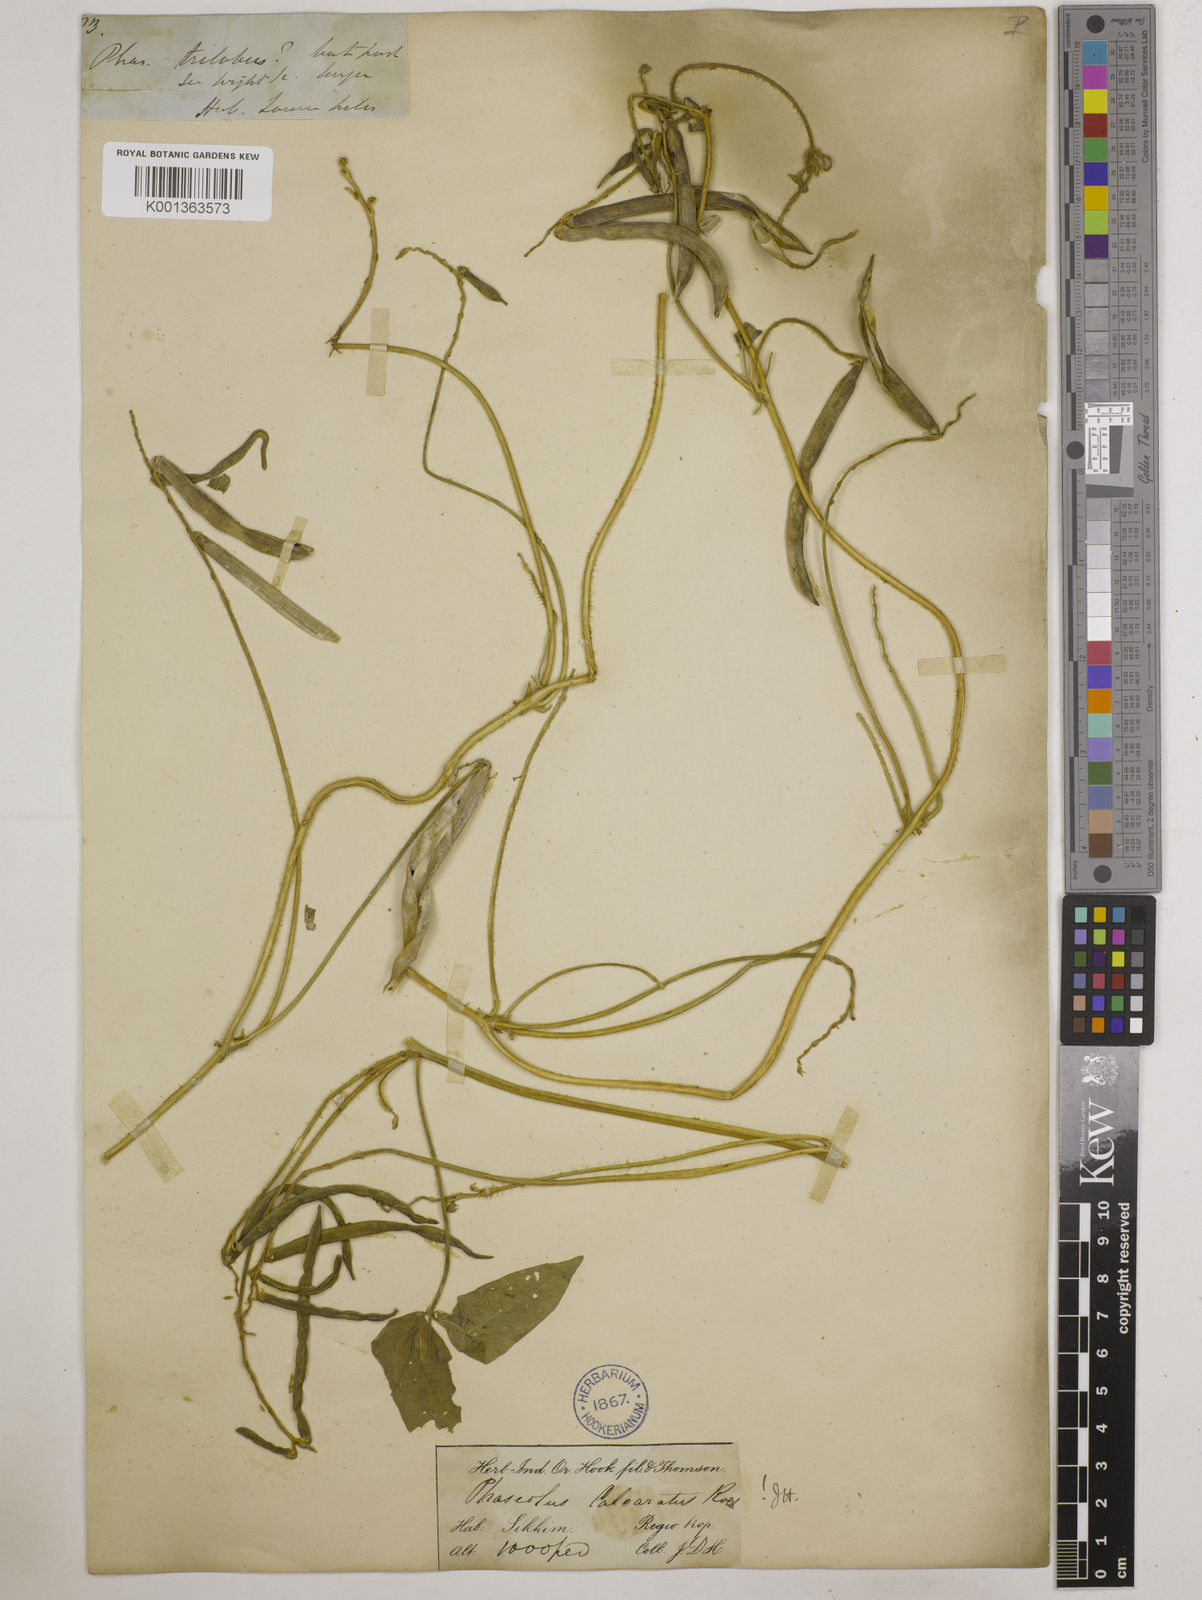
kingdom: Plantae
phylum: Tracheophyta
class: Magnoliopsida
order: Fabales
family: Fabaceae
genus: Vigna
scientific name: Vigna umbellata
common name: Oriental-bean
